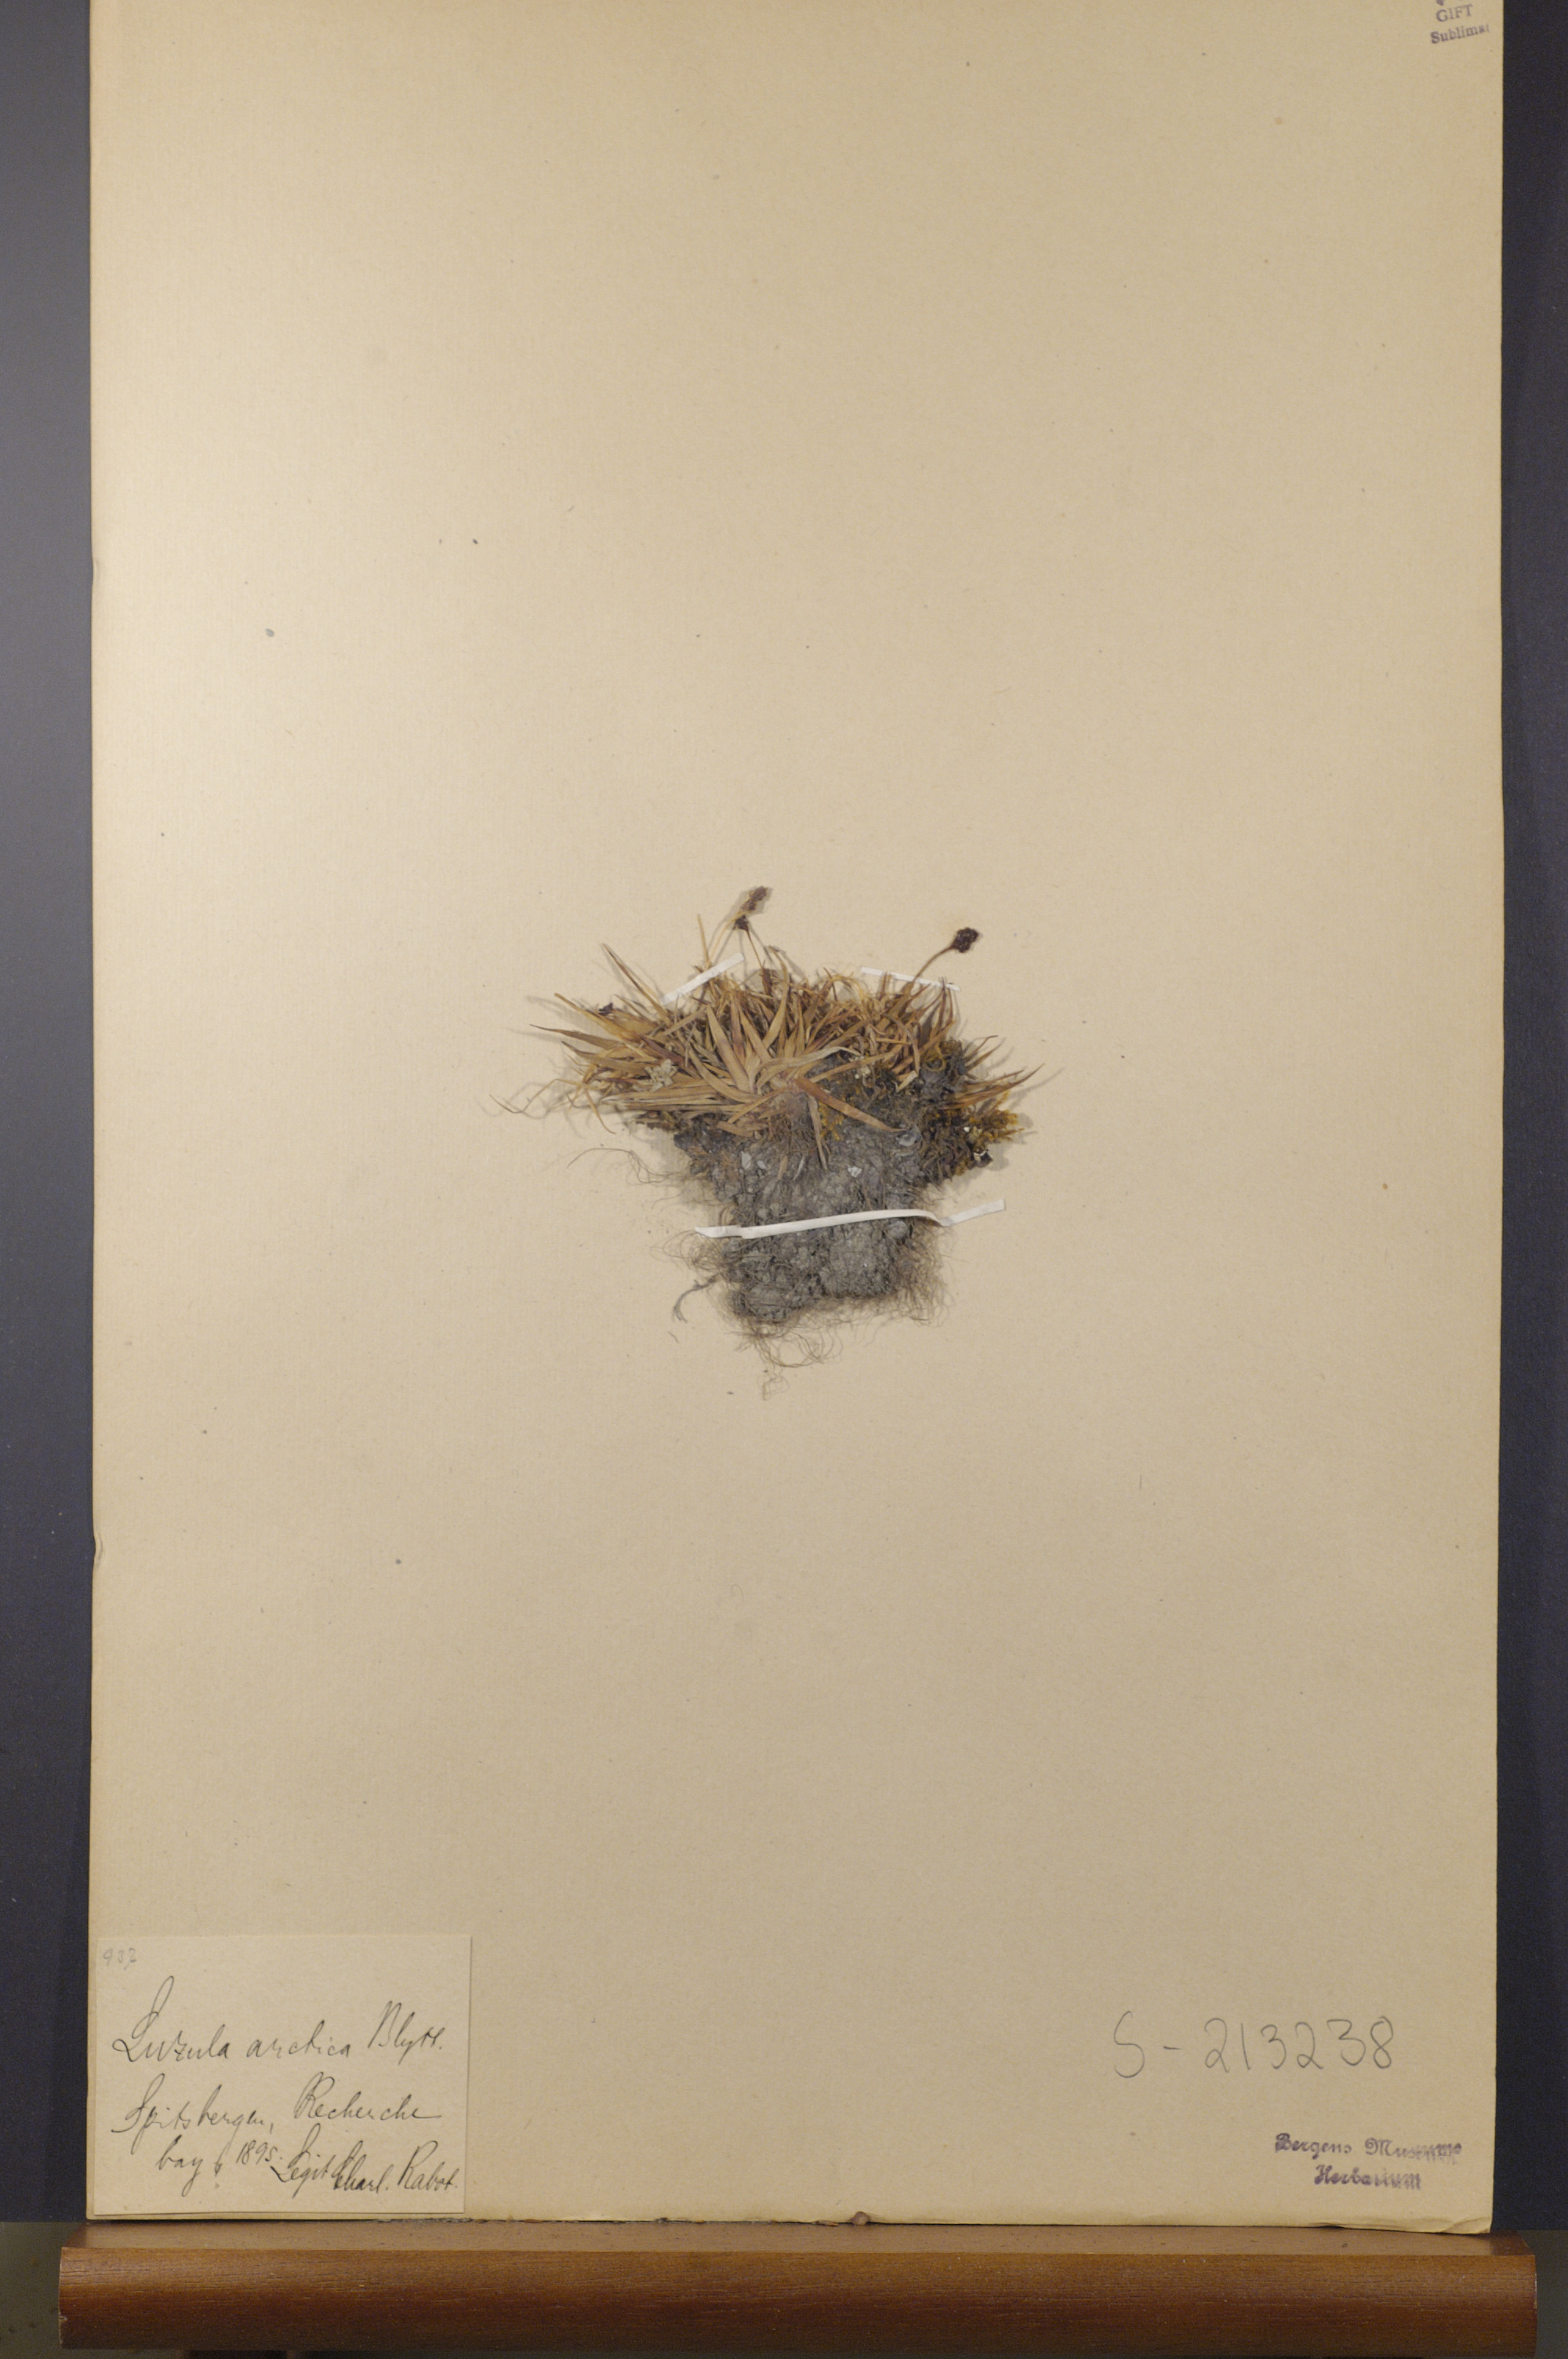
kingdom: Plantae
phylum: Tracheophyta
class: Liliopsida
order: Poales
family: Juncaceae
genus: Luzula
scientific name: Luzula nivalis
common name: Arctic woodrush
